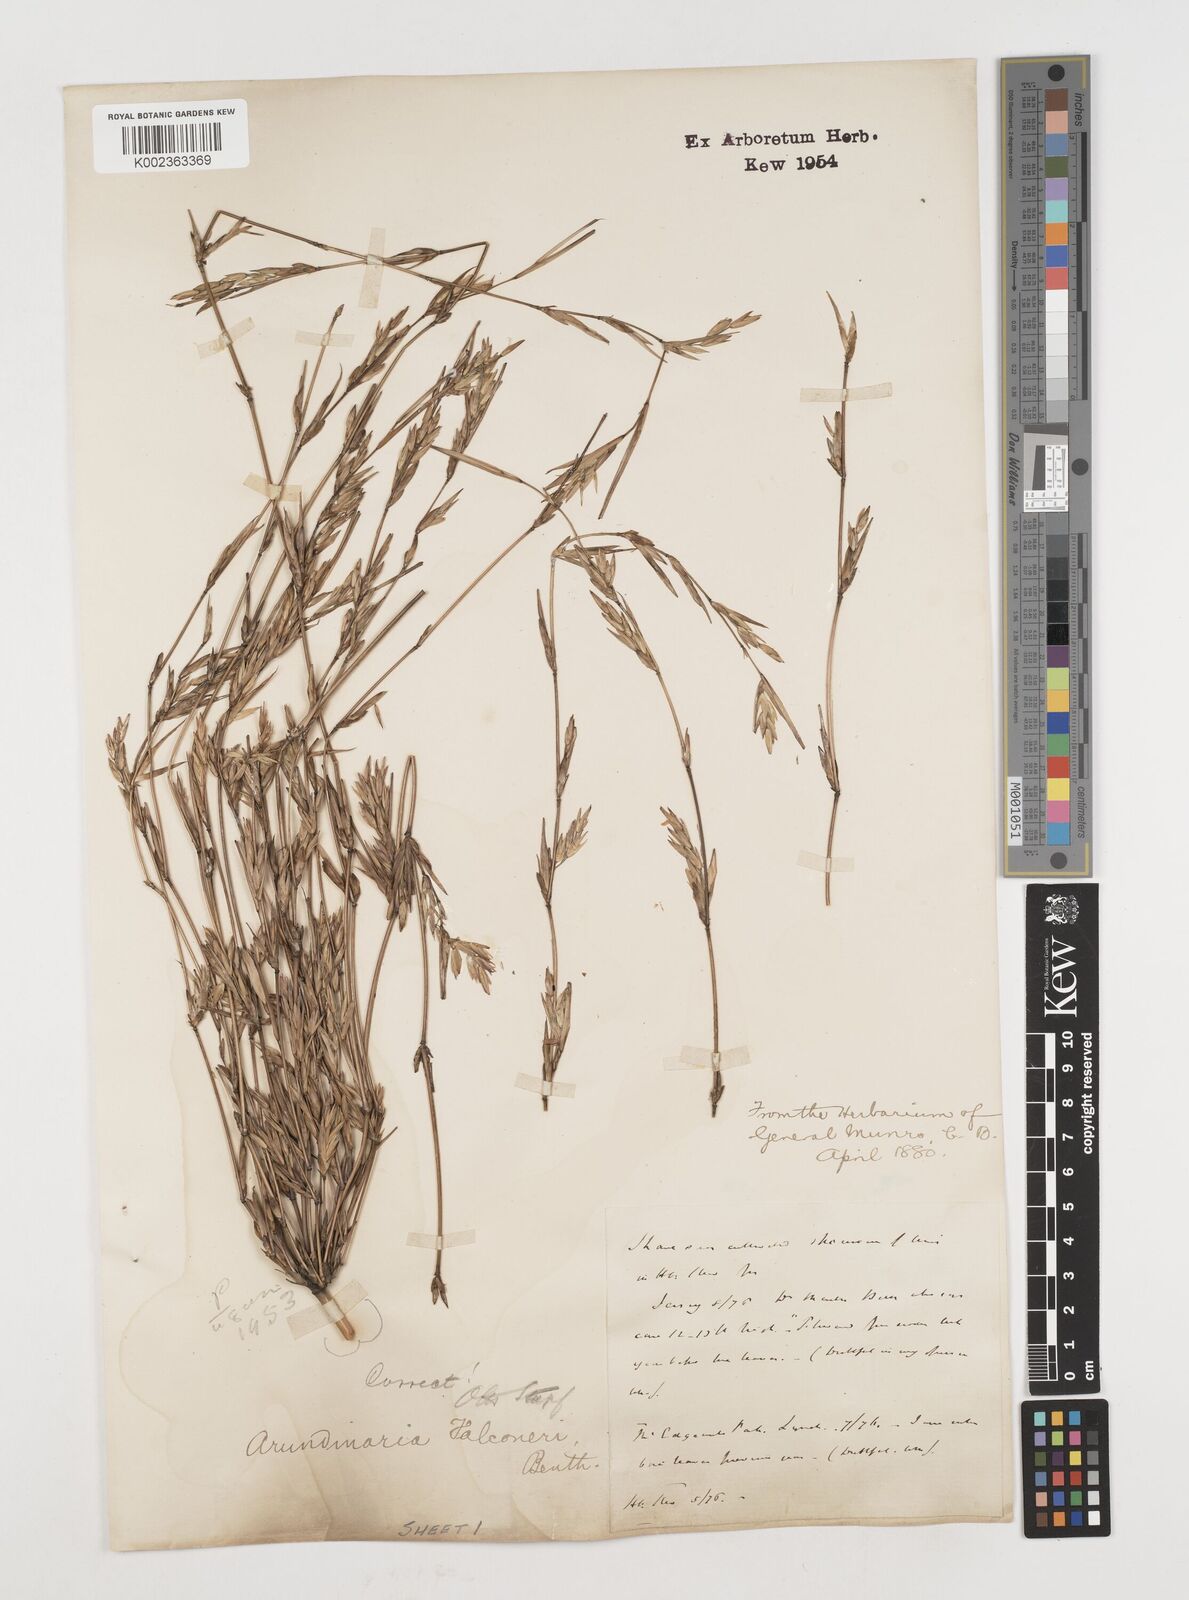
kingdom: Plantae
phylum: Tracheophyta
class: Liliopsida
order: Poales
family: Poaceae
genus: Himalayacalamus
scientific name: Himalayacalamus falconeri
